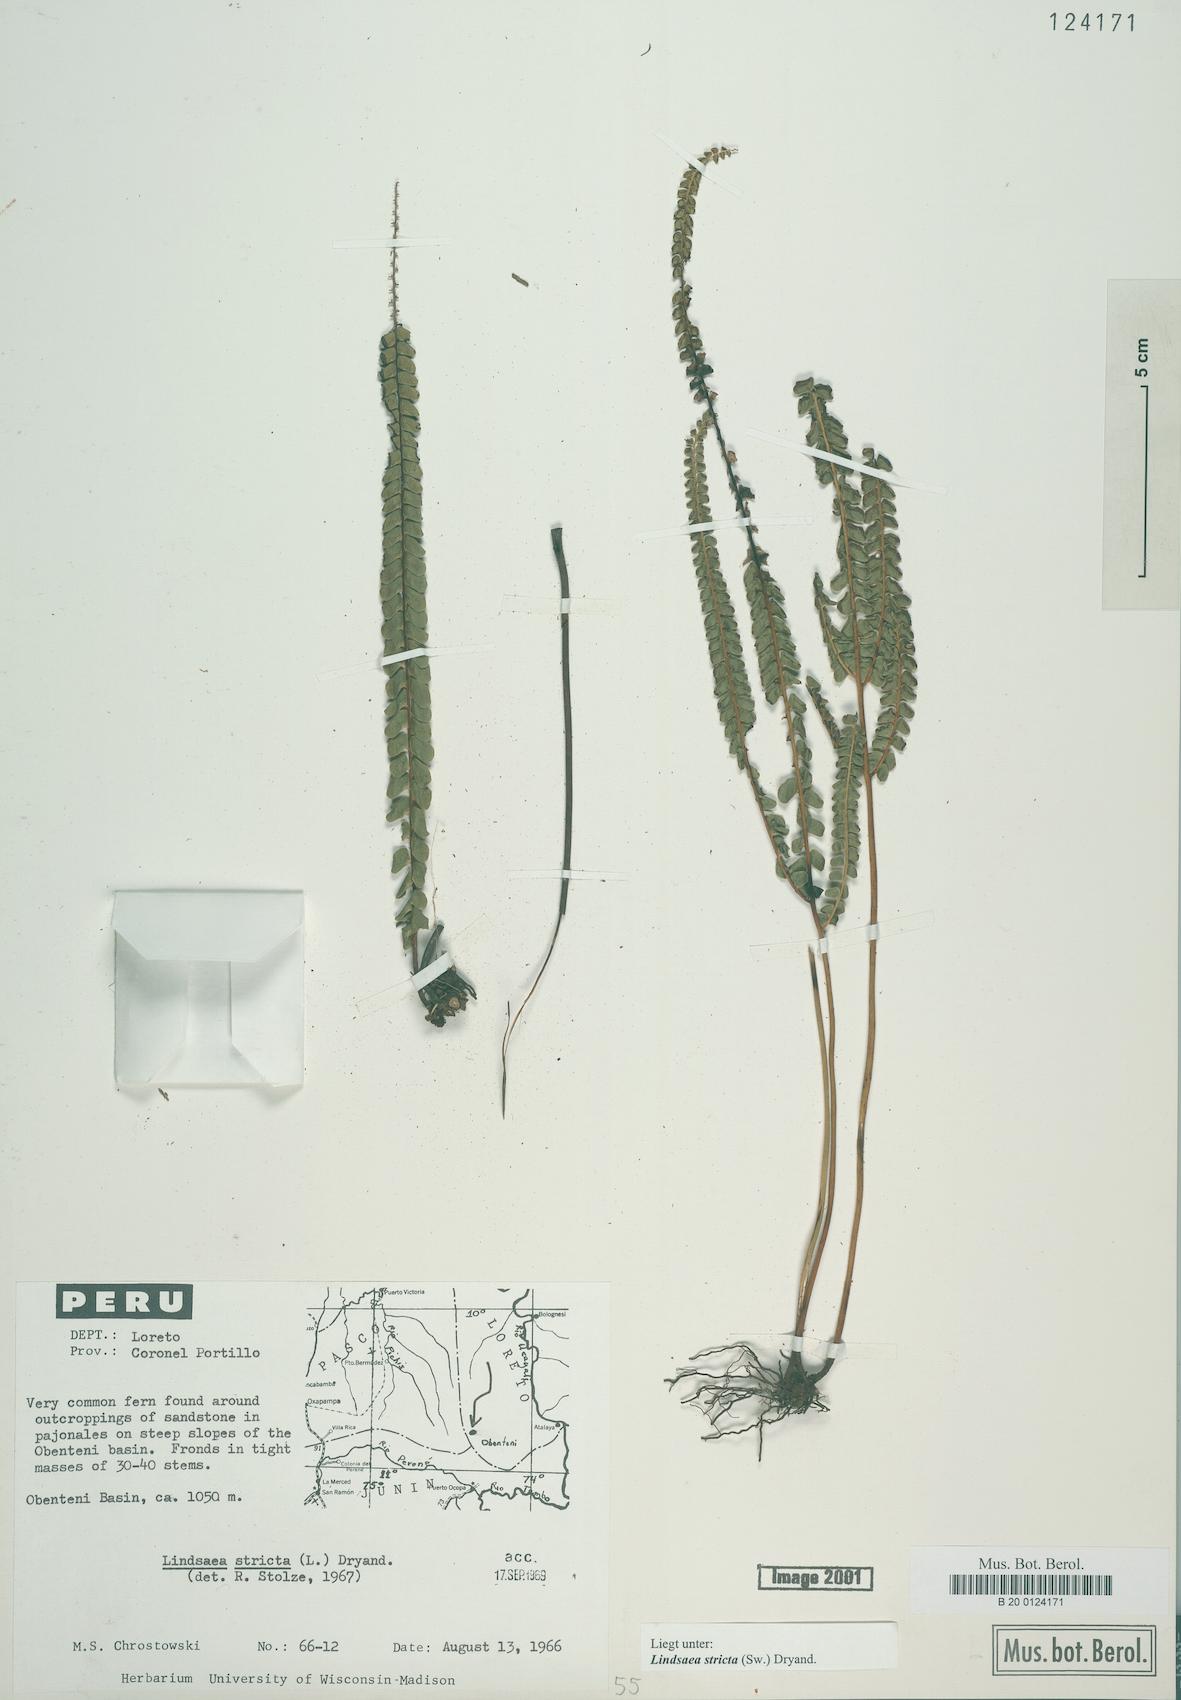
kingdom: Plantae
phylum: Tracheophyta
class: Polypodiopsida
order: Polypodiales
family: Lindsaeaceae
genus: Lindsaea
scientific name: Lindsaea stricta
